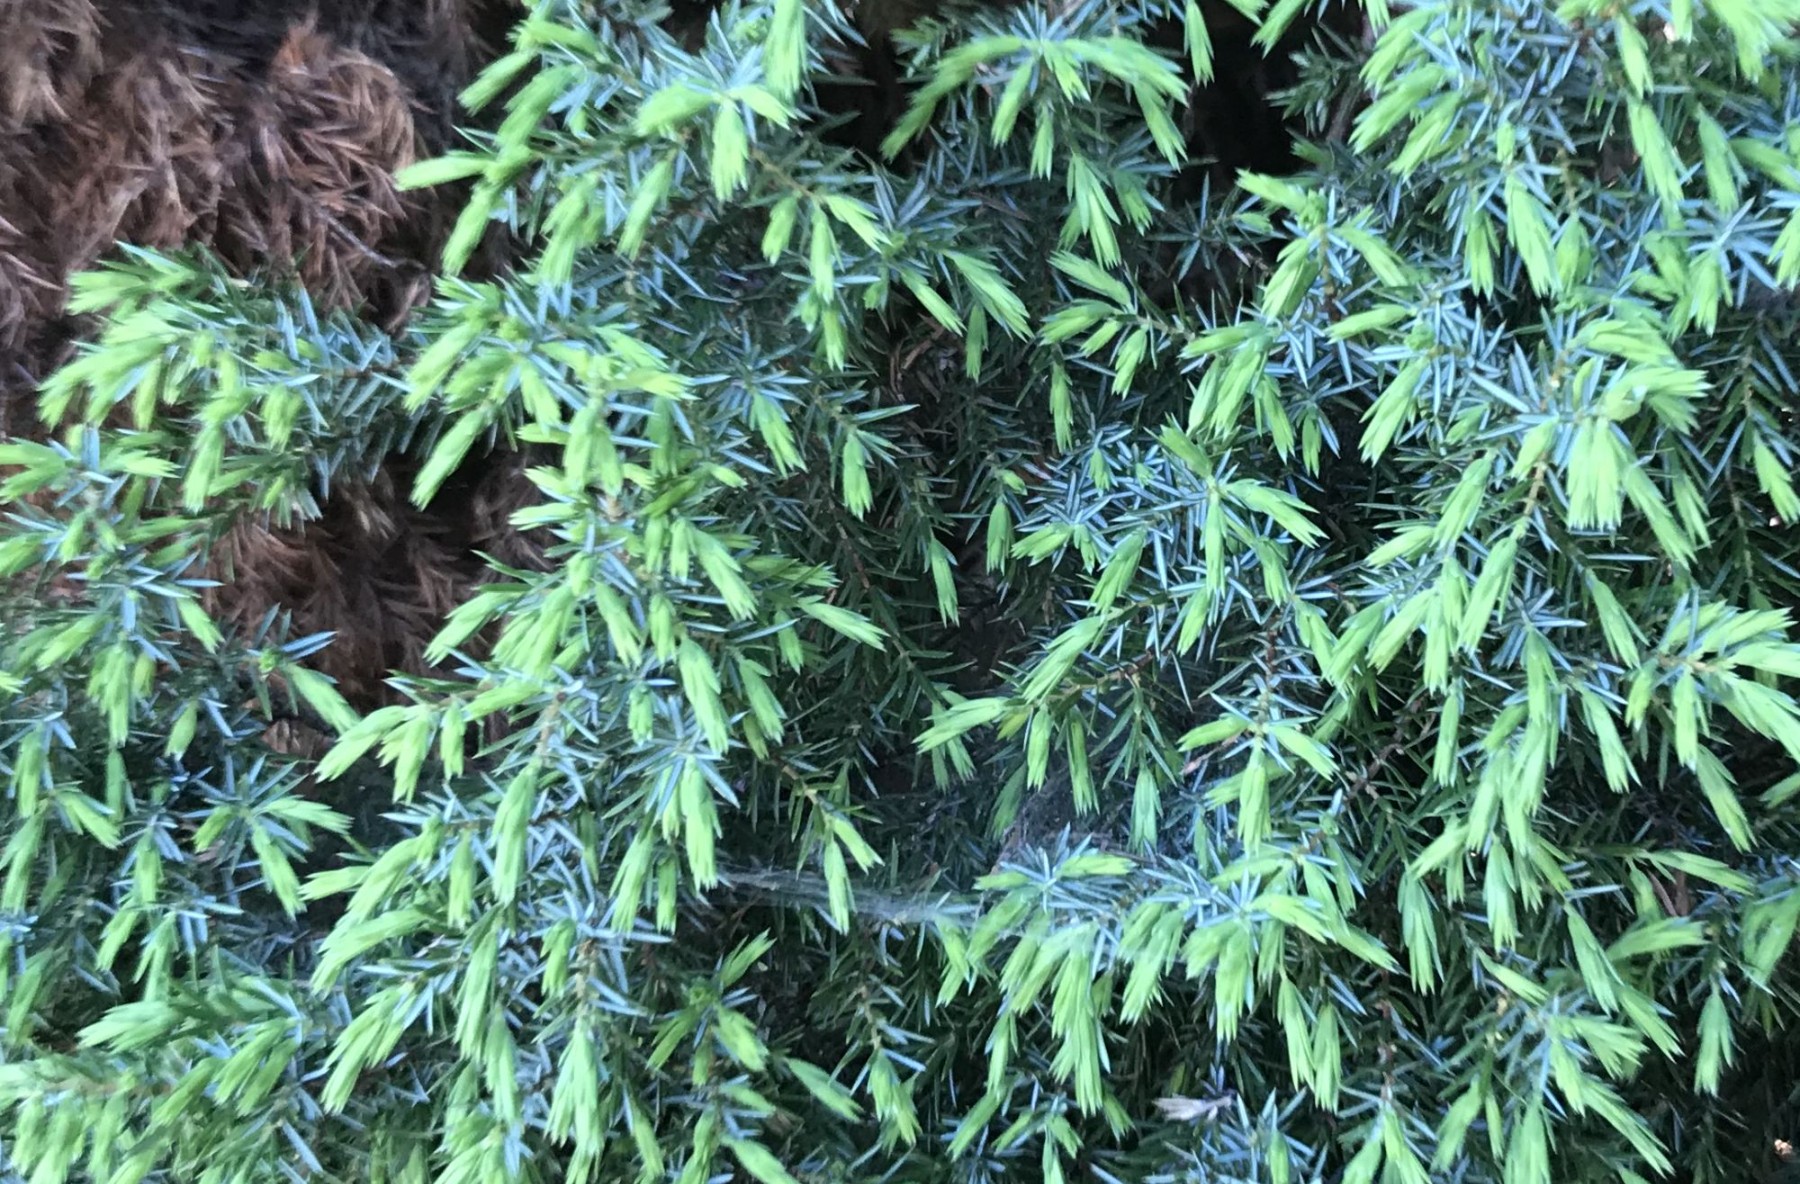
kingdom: Fungi
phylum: Basidiomycota
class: Pucciniomycetes
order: Pucciniales
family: Gymnosporangiaceae
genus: Gymnosporangium
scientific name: Gymnosporangium clavariiforme
